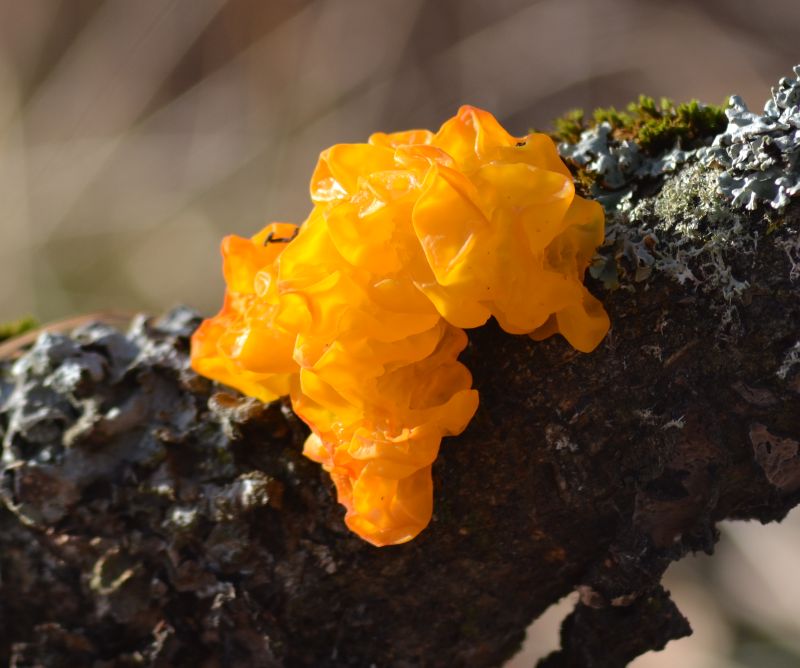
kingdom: Fungi
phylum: Basidiomycota
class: Tremellomycetes
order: Tremellales
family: Tremellaceae
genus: Tremella
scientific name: Tremella mesenterica
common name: gul bævresvamp
